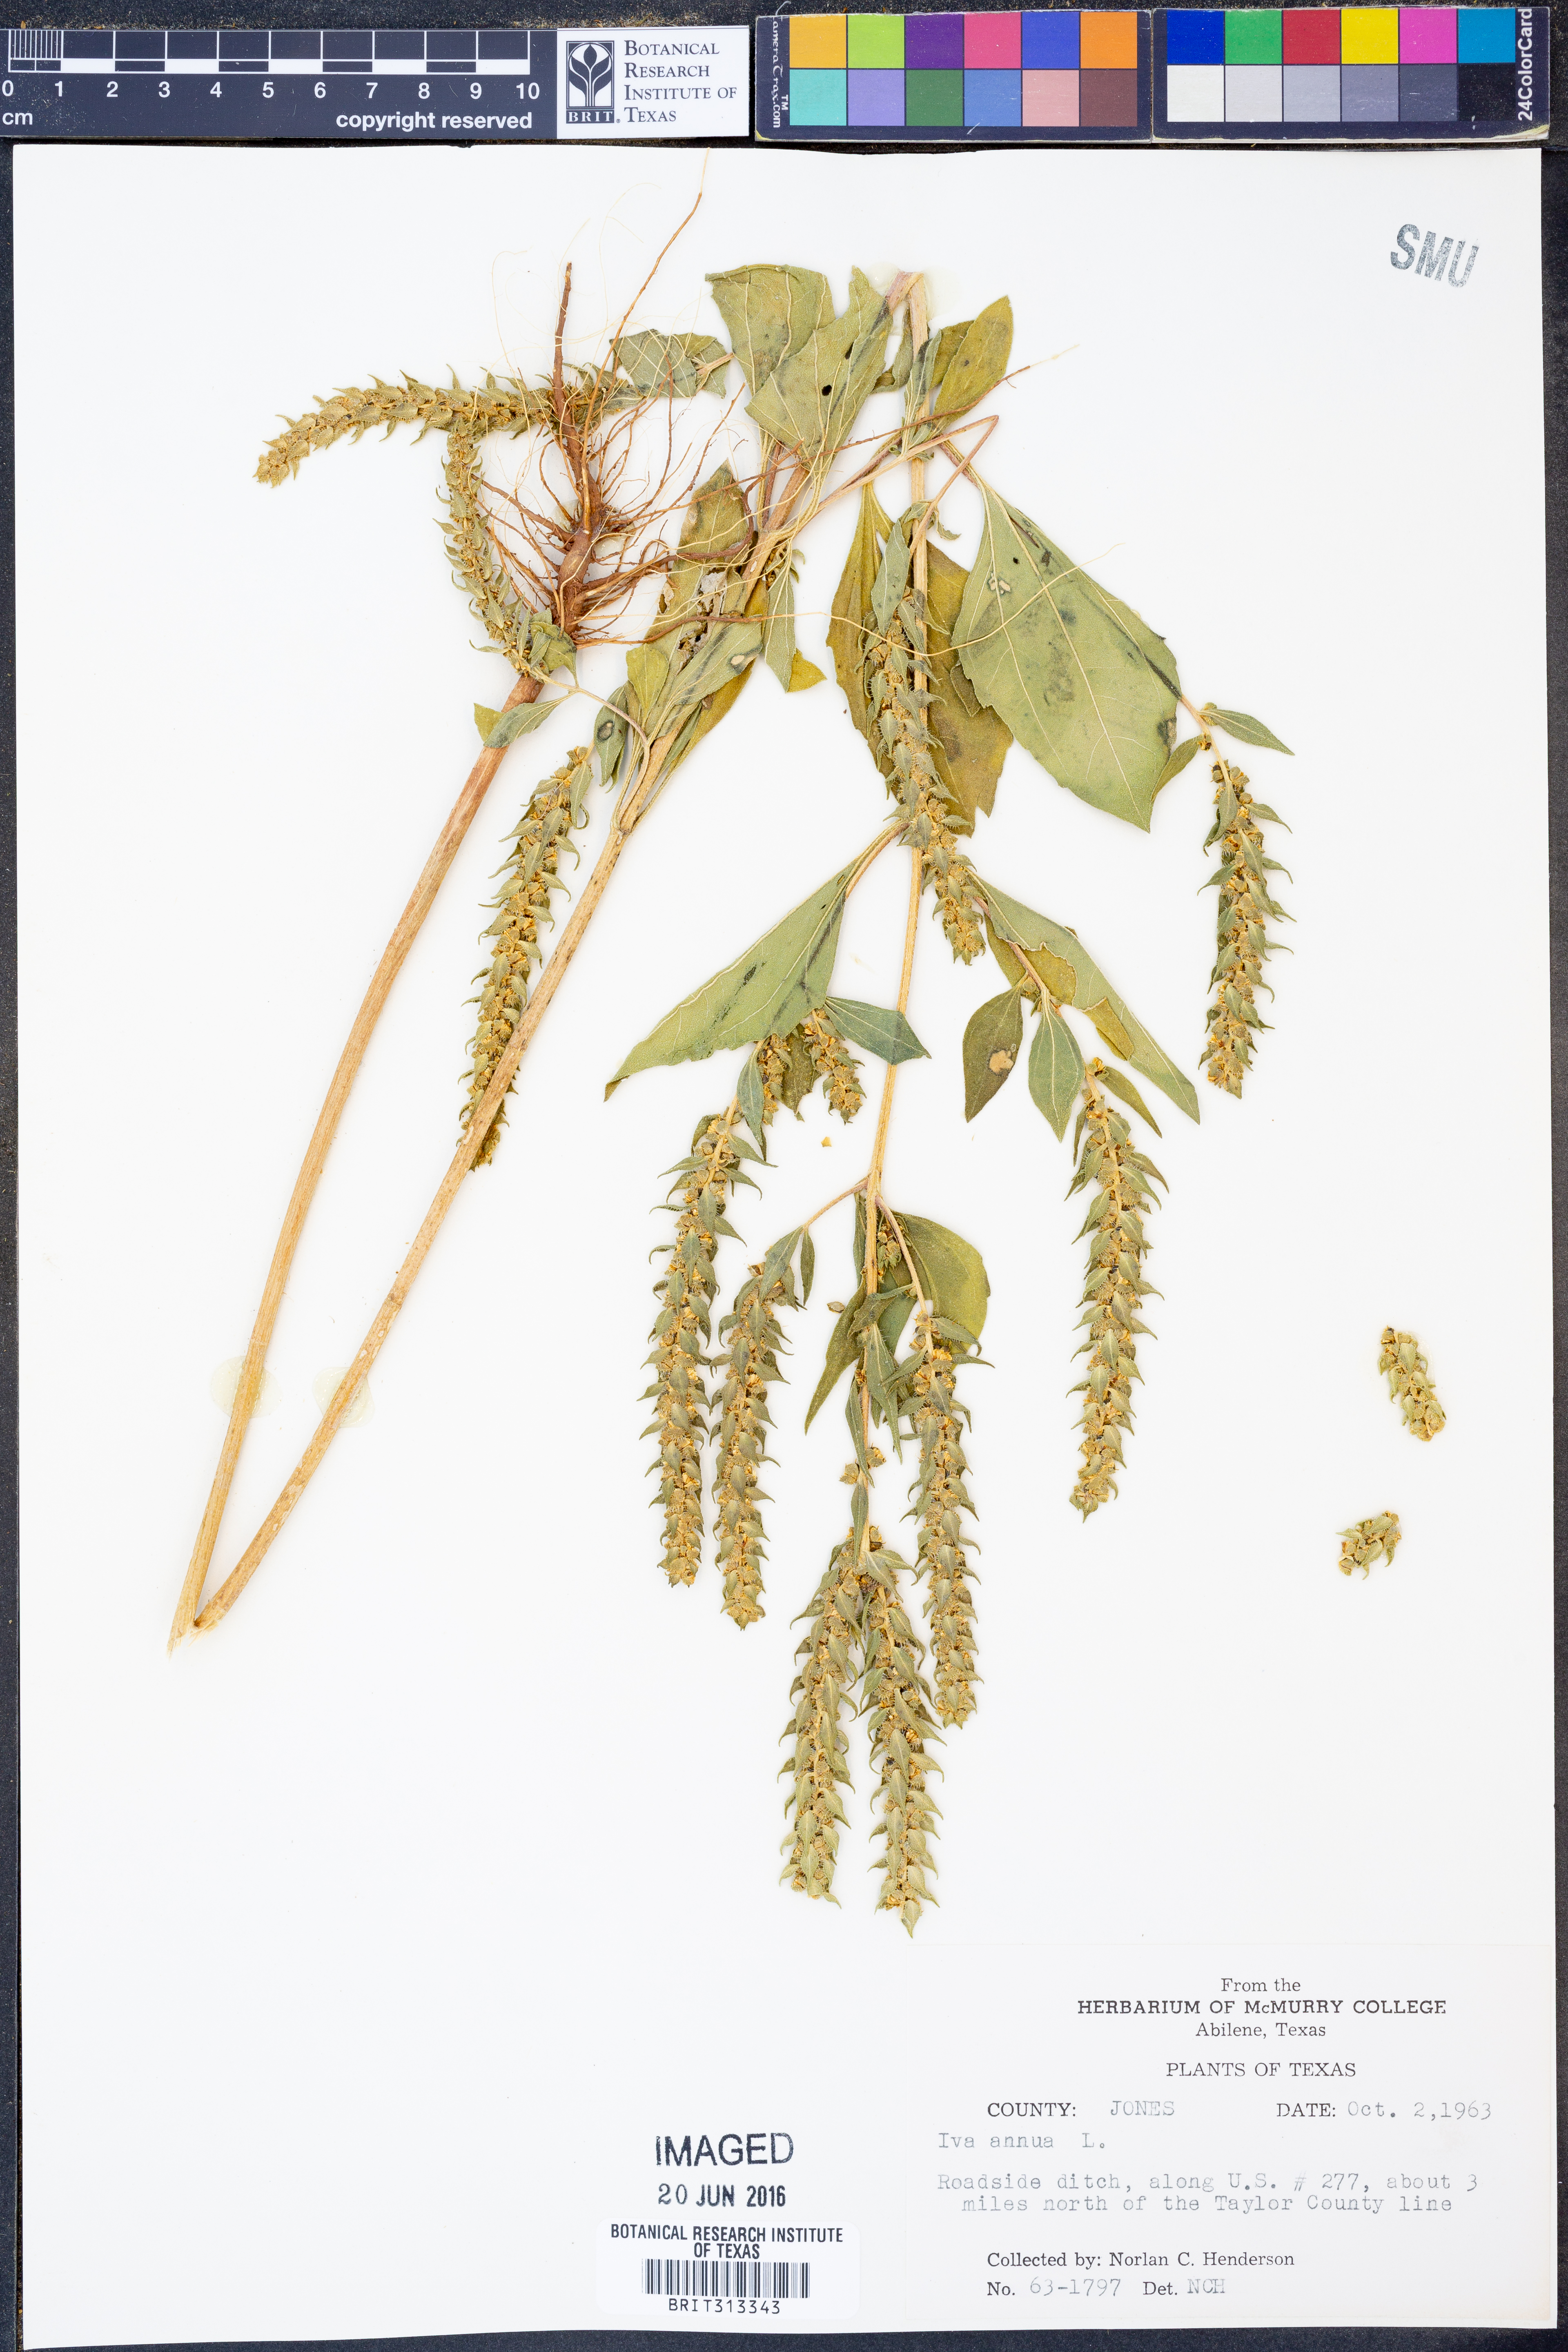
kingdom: Plantae
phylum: Tracheophyta
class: Magnoliopsida
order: Asterales
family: Asteraceae
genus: Iva
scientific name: Iva annua
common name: Marsh-elder
